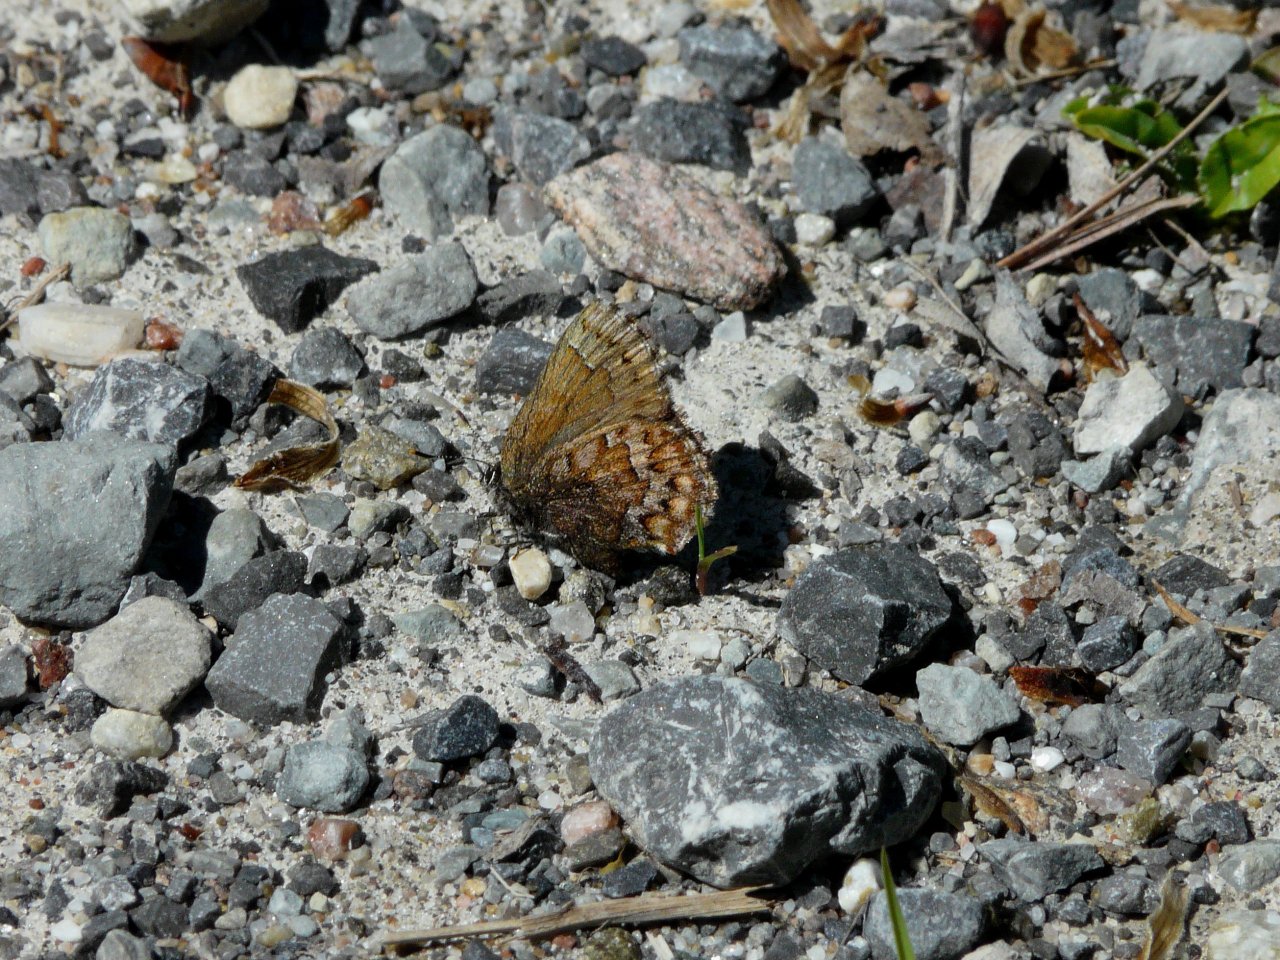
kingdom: Animalia
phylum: Arthropoda
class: Insecta
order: Lepidoptera
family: Lycaenidae
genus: Incisalia
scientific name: Incisalia niphon
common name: Eastern Pine Elfin
